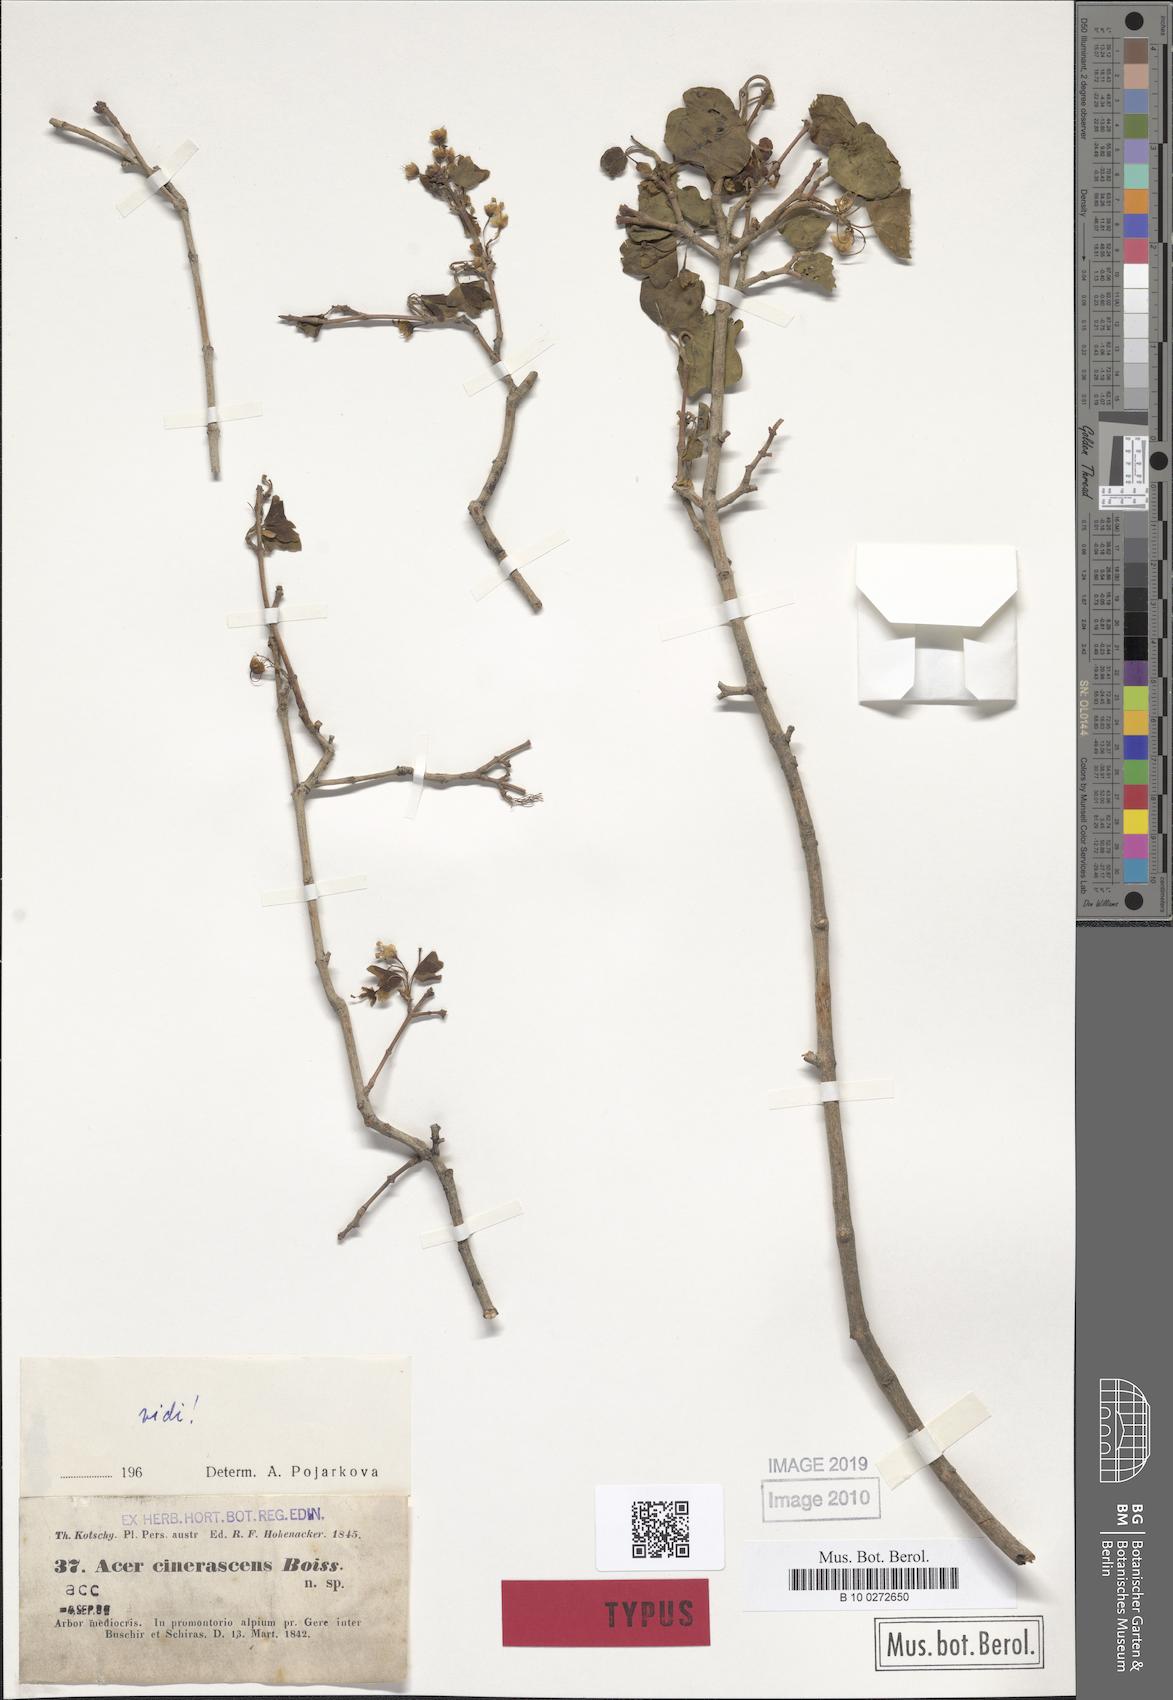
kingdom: Plantae
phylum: Tracheophyta
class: Magnoliopsida
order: Sapindales
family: Sapindaceae
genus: Acer
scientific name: Acer monspessulanum
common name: Montpellier maple
